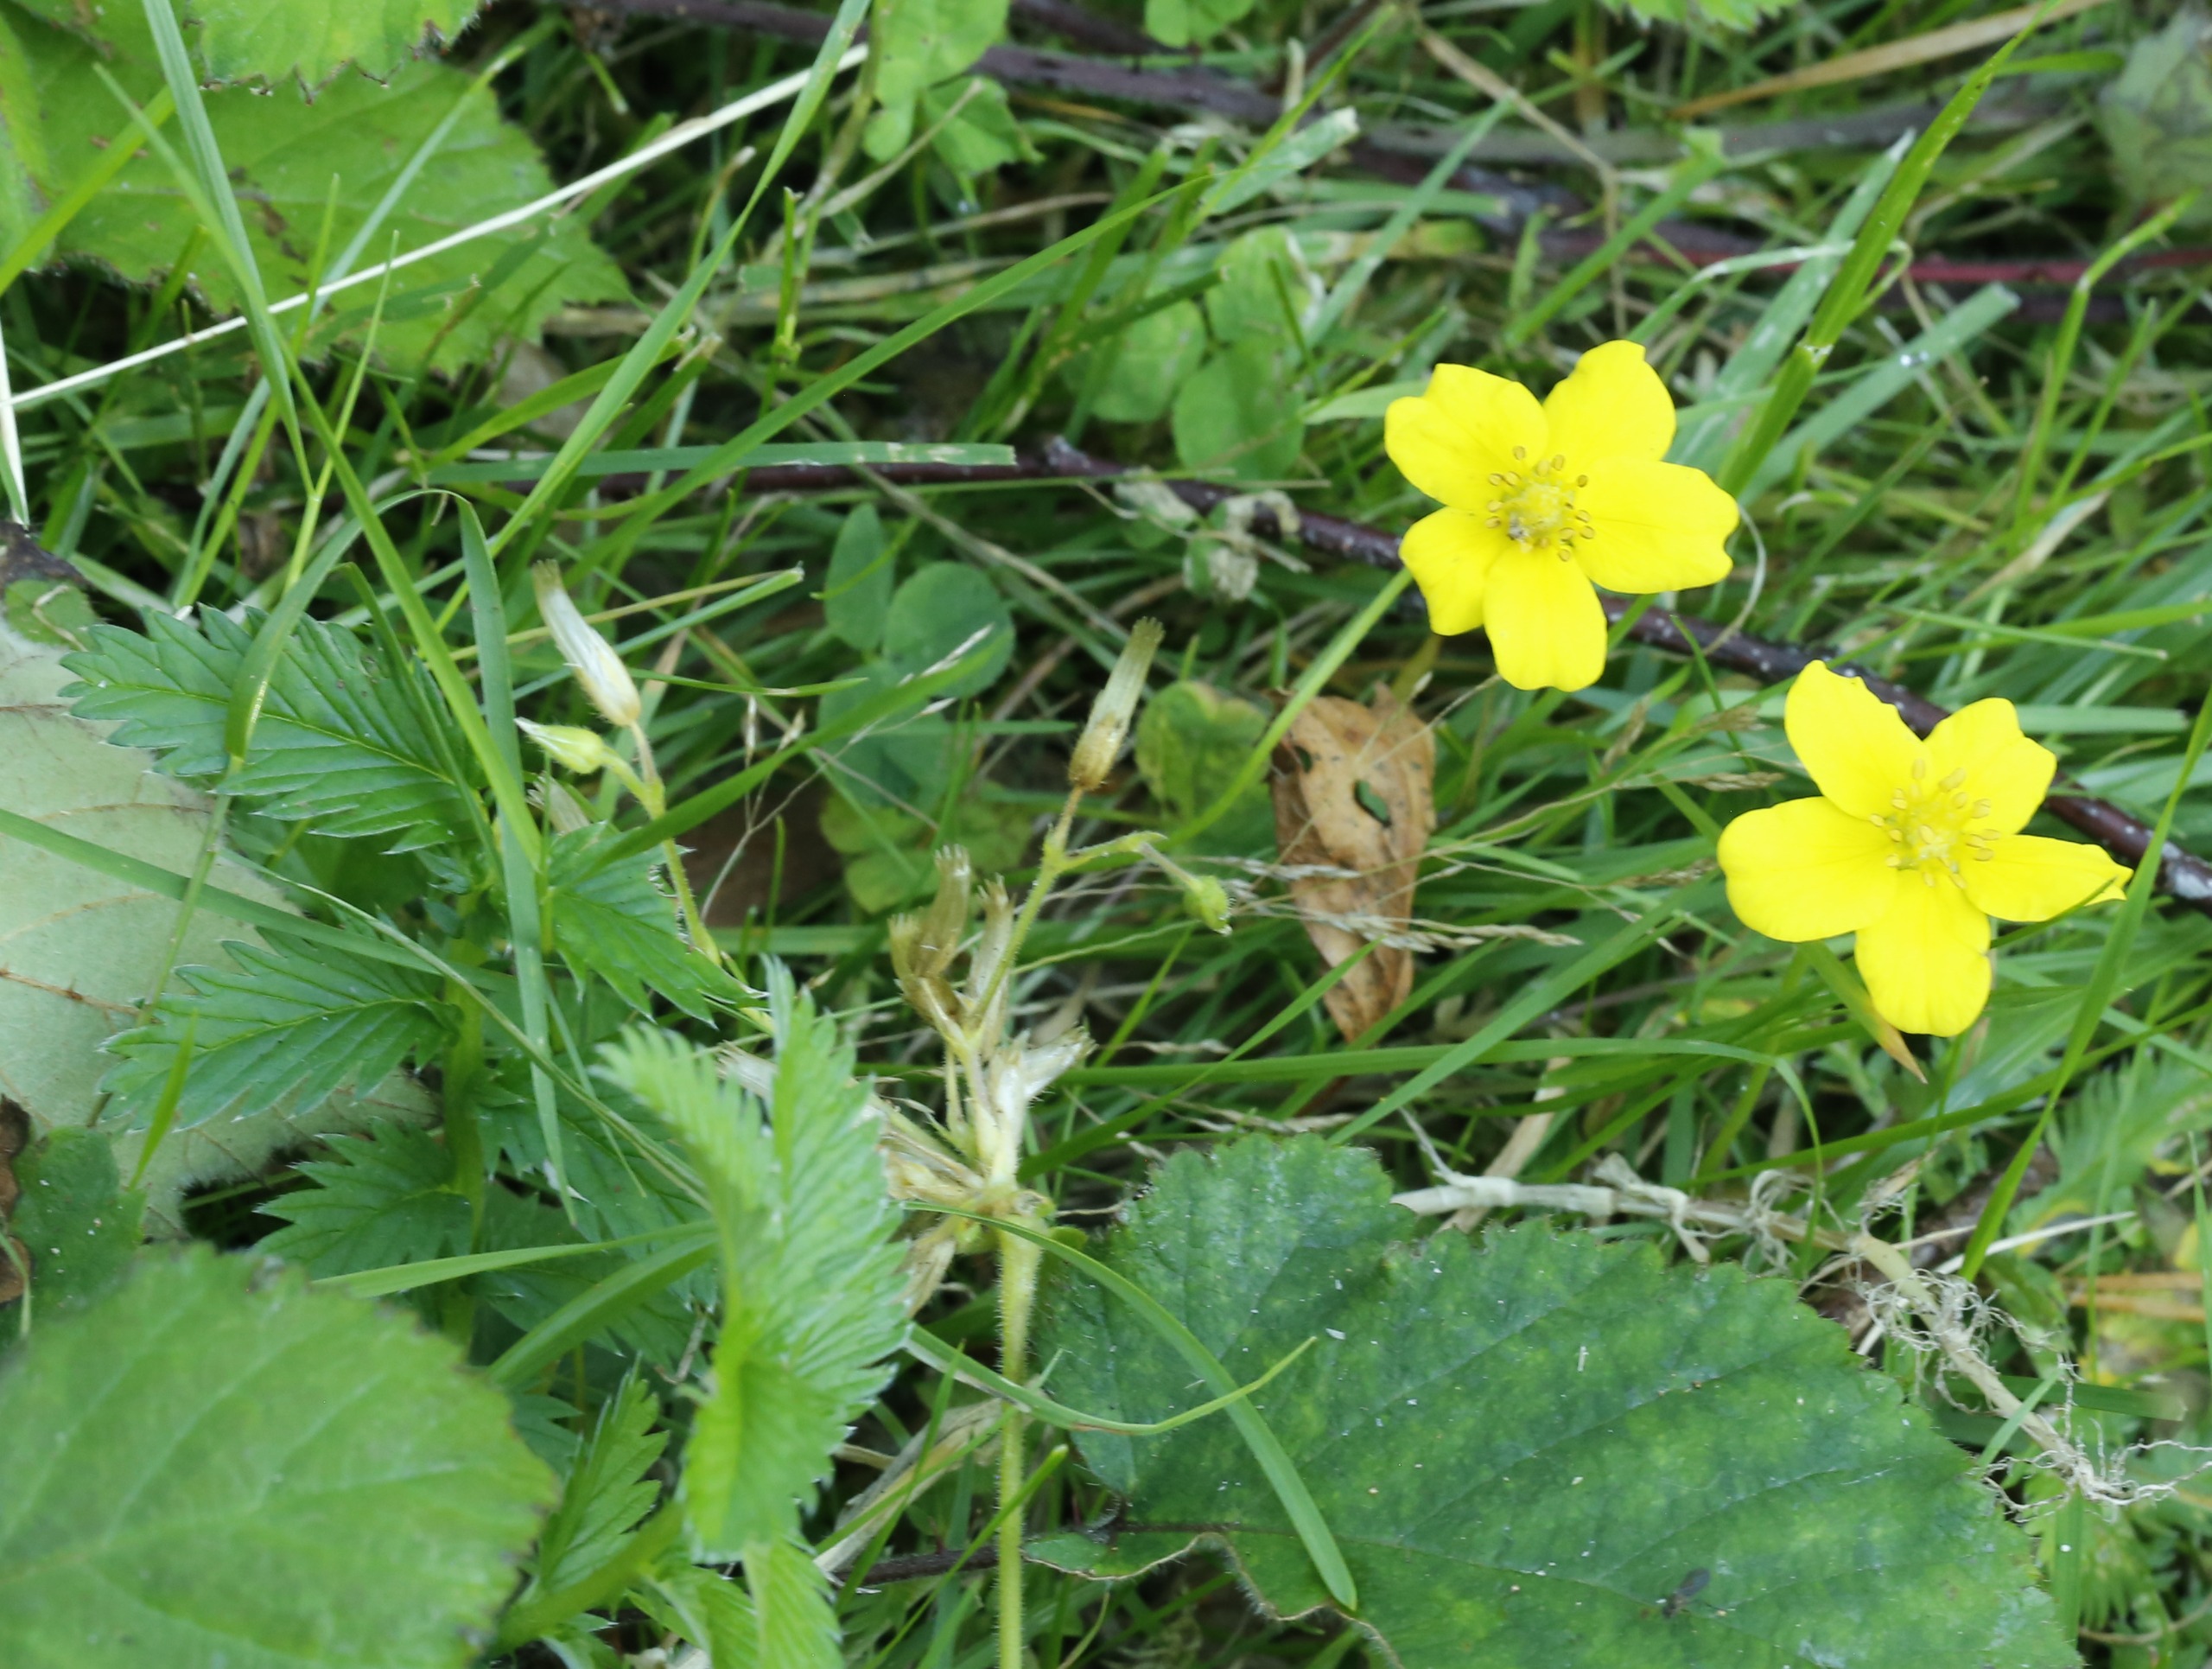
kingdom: Plantae
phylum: Tracheophyta
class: Magnoliopsida
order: Rosales
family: Rosaceae
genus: Argentina
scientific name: Argentina anserina
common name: Gåsepotentil
